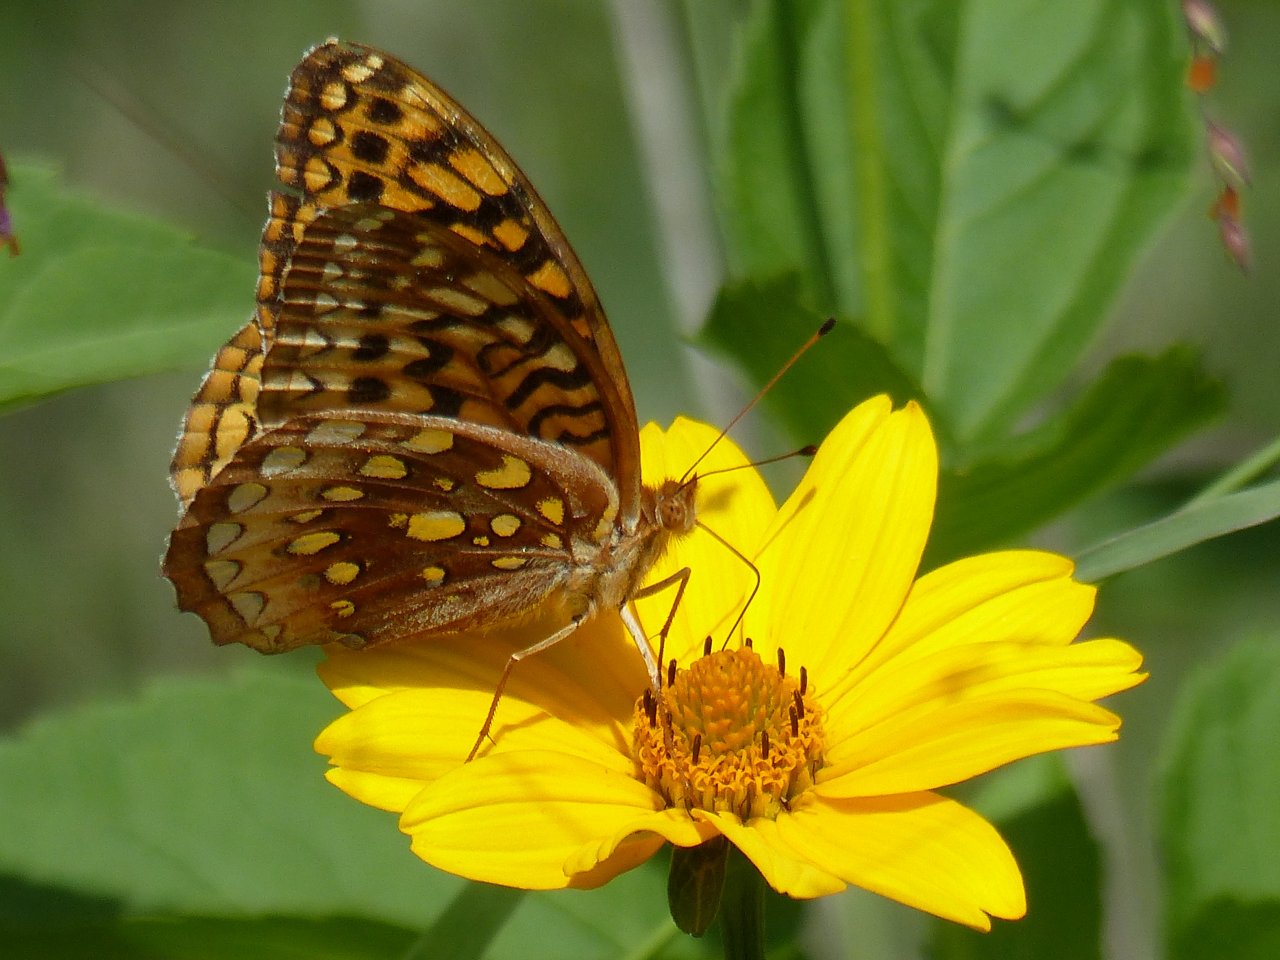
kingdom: Animalia
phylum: Arthropoda
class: Insecta
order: Lepidoptera
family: Nymphalidae
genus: Speyeria
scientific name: Speyeria cybele
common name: Great Spangled Fritillary
